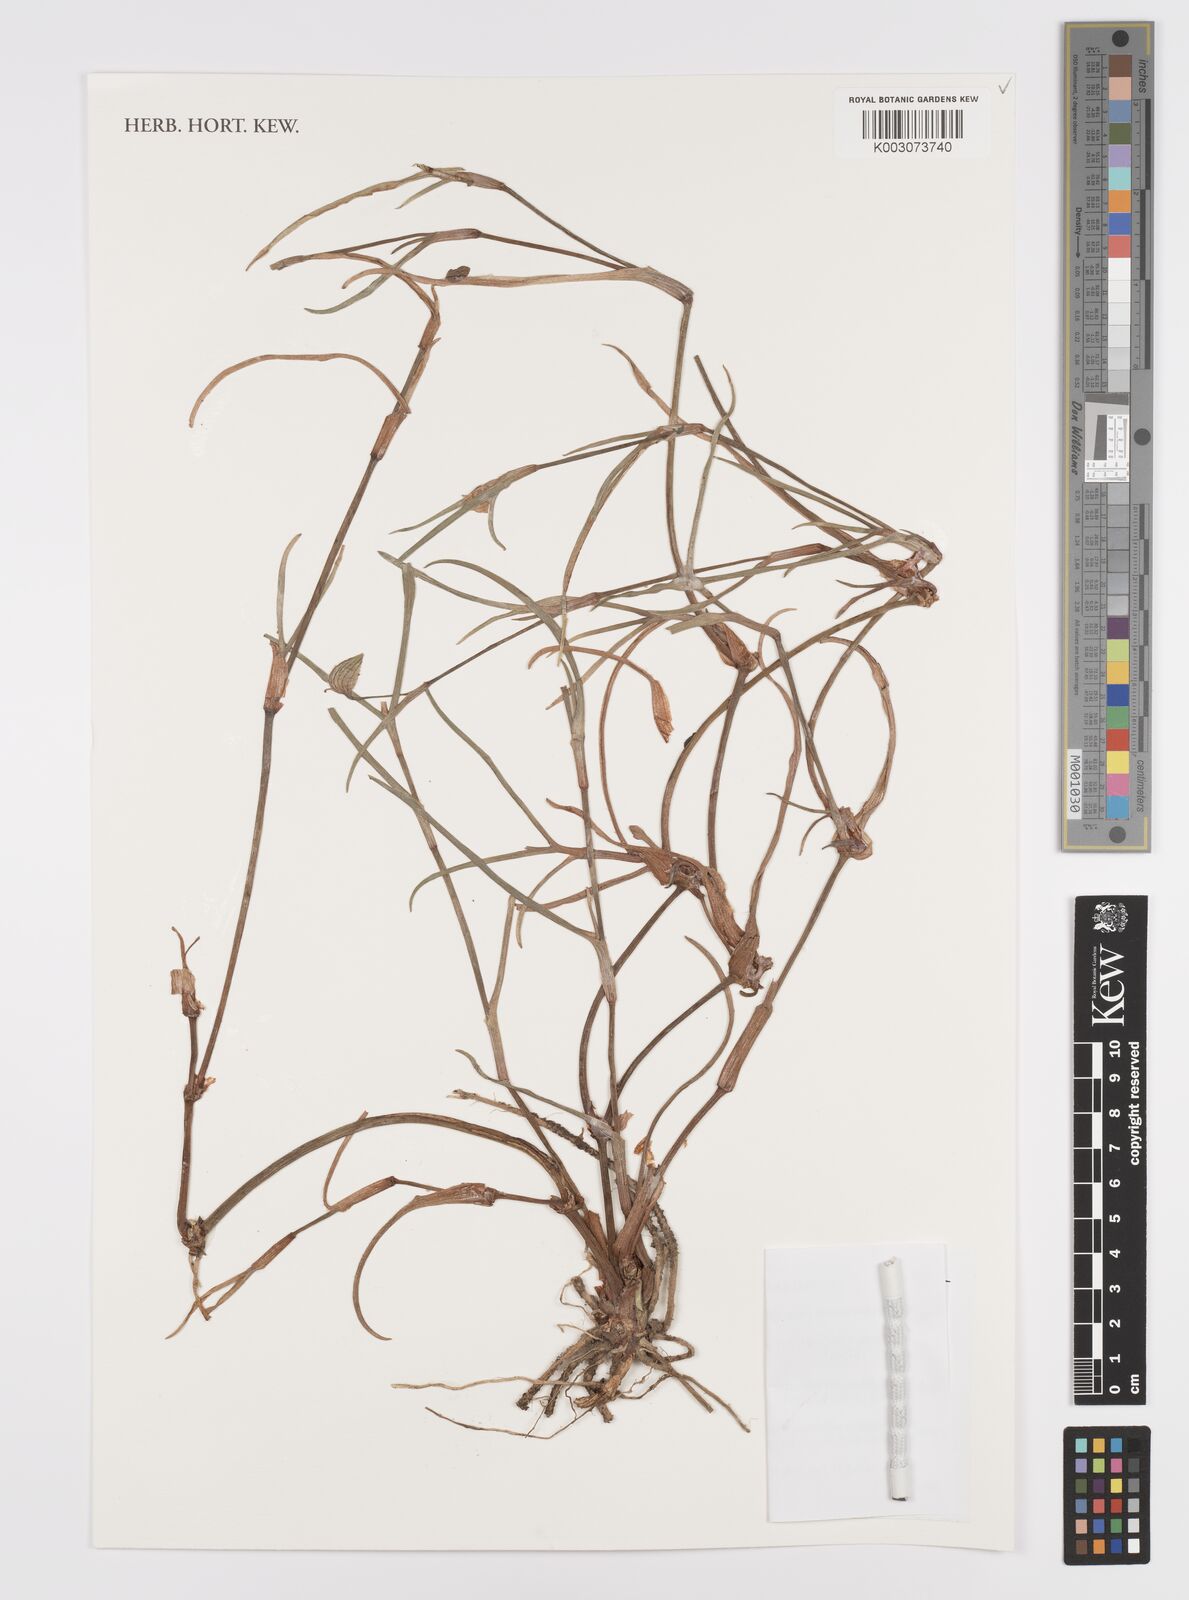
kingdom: Plantae
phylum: Tracheophyta
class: Liliopsida
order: Commelinales
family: Commelinaceae
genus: Commelina
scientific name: Commelina pseudopurpurea
